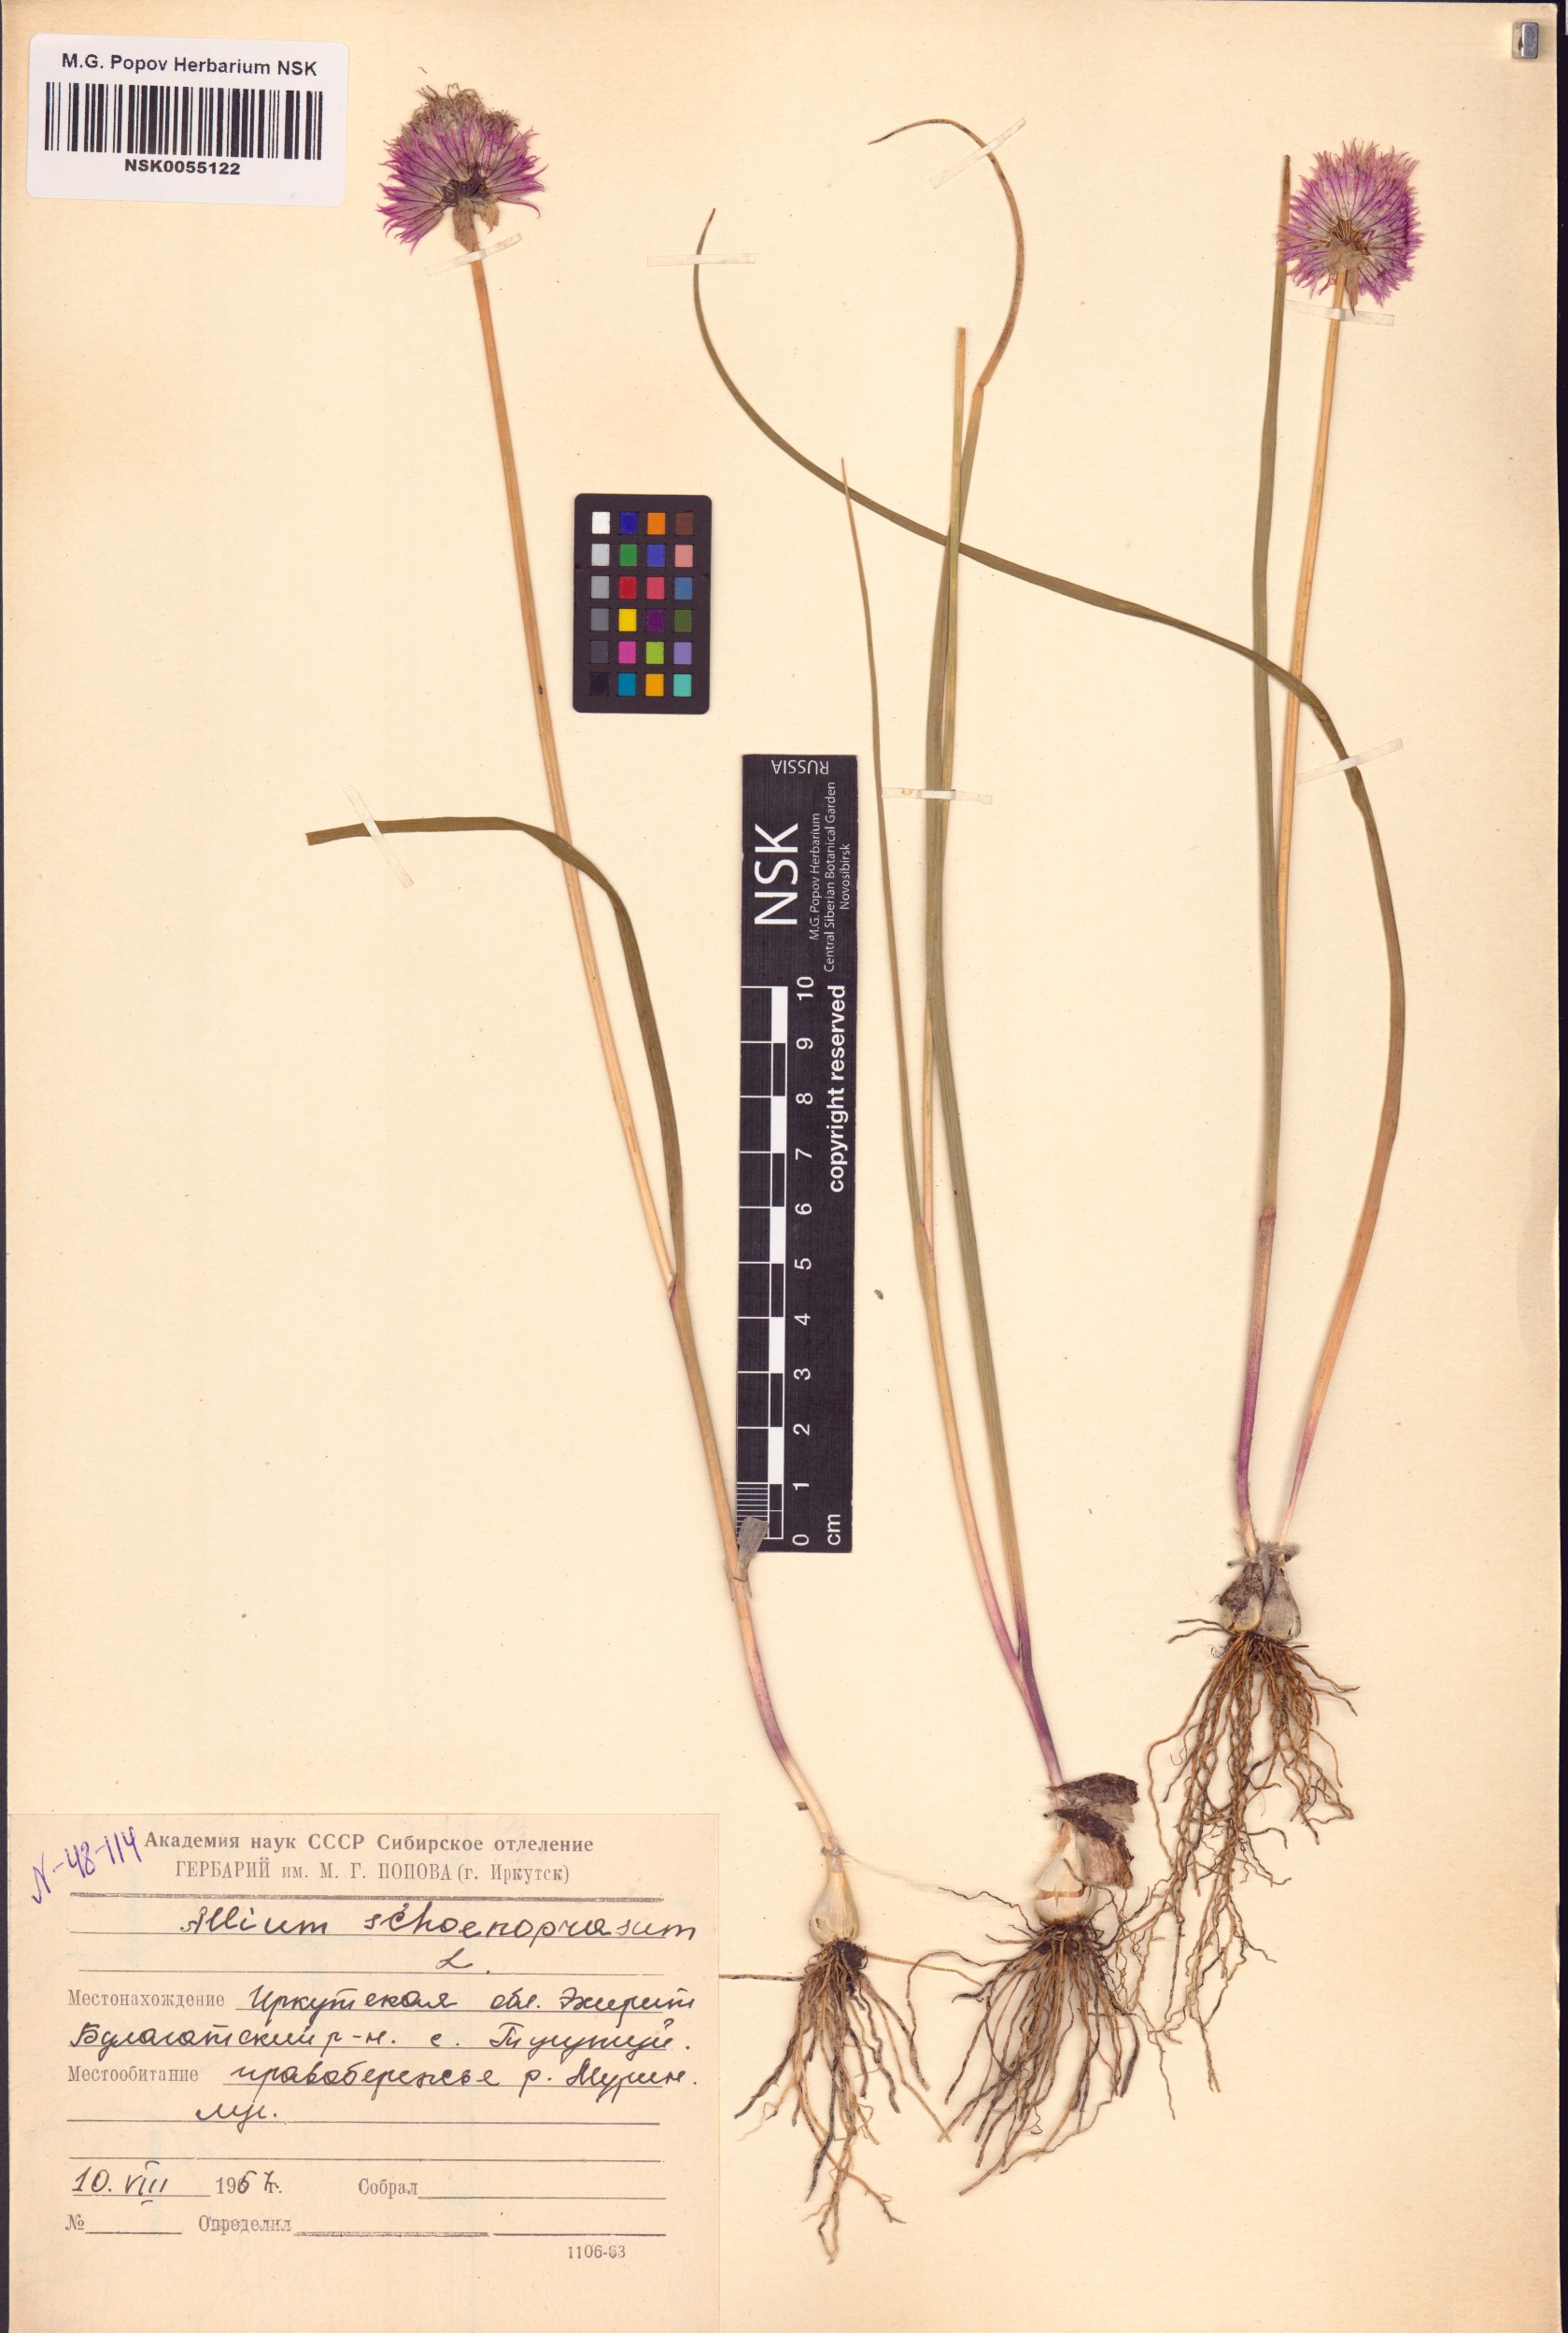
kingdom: Plantae
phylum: Tracheophyta
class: Liliopsida
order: Asparagales
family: Amaryllidaceae
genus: Allium
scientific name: Allium schoenoprasum
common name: Chives
